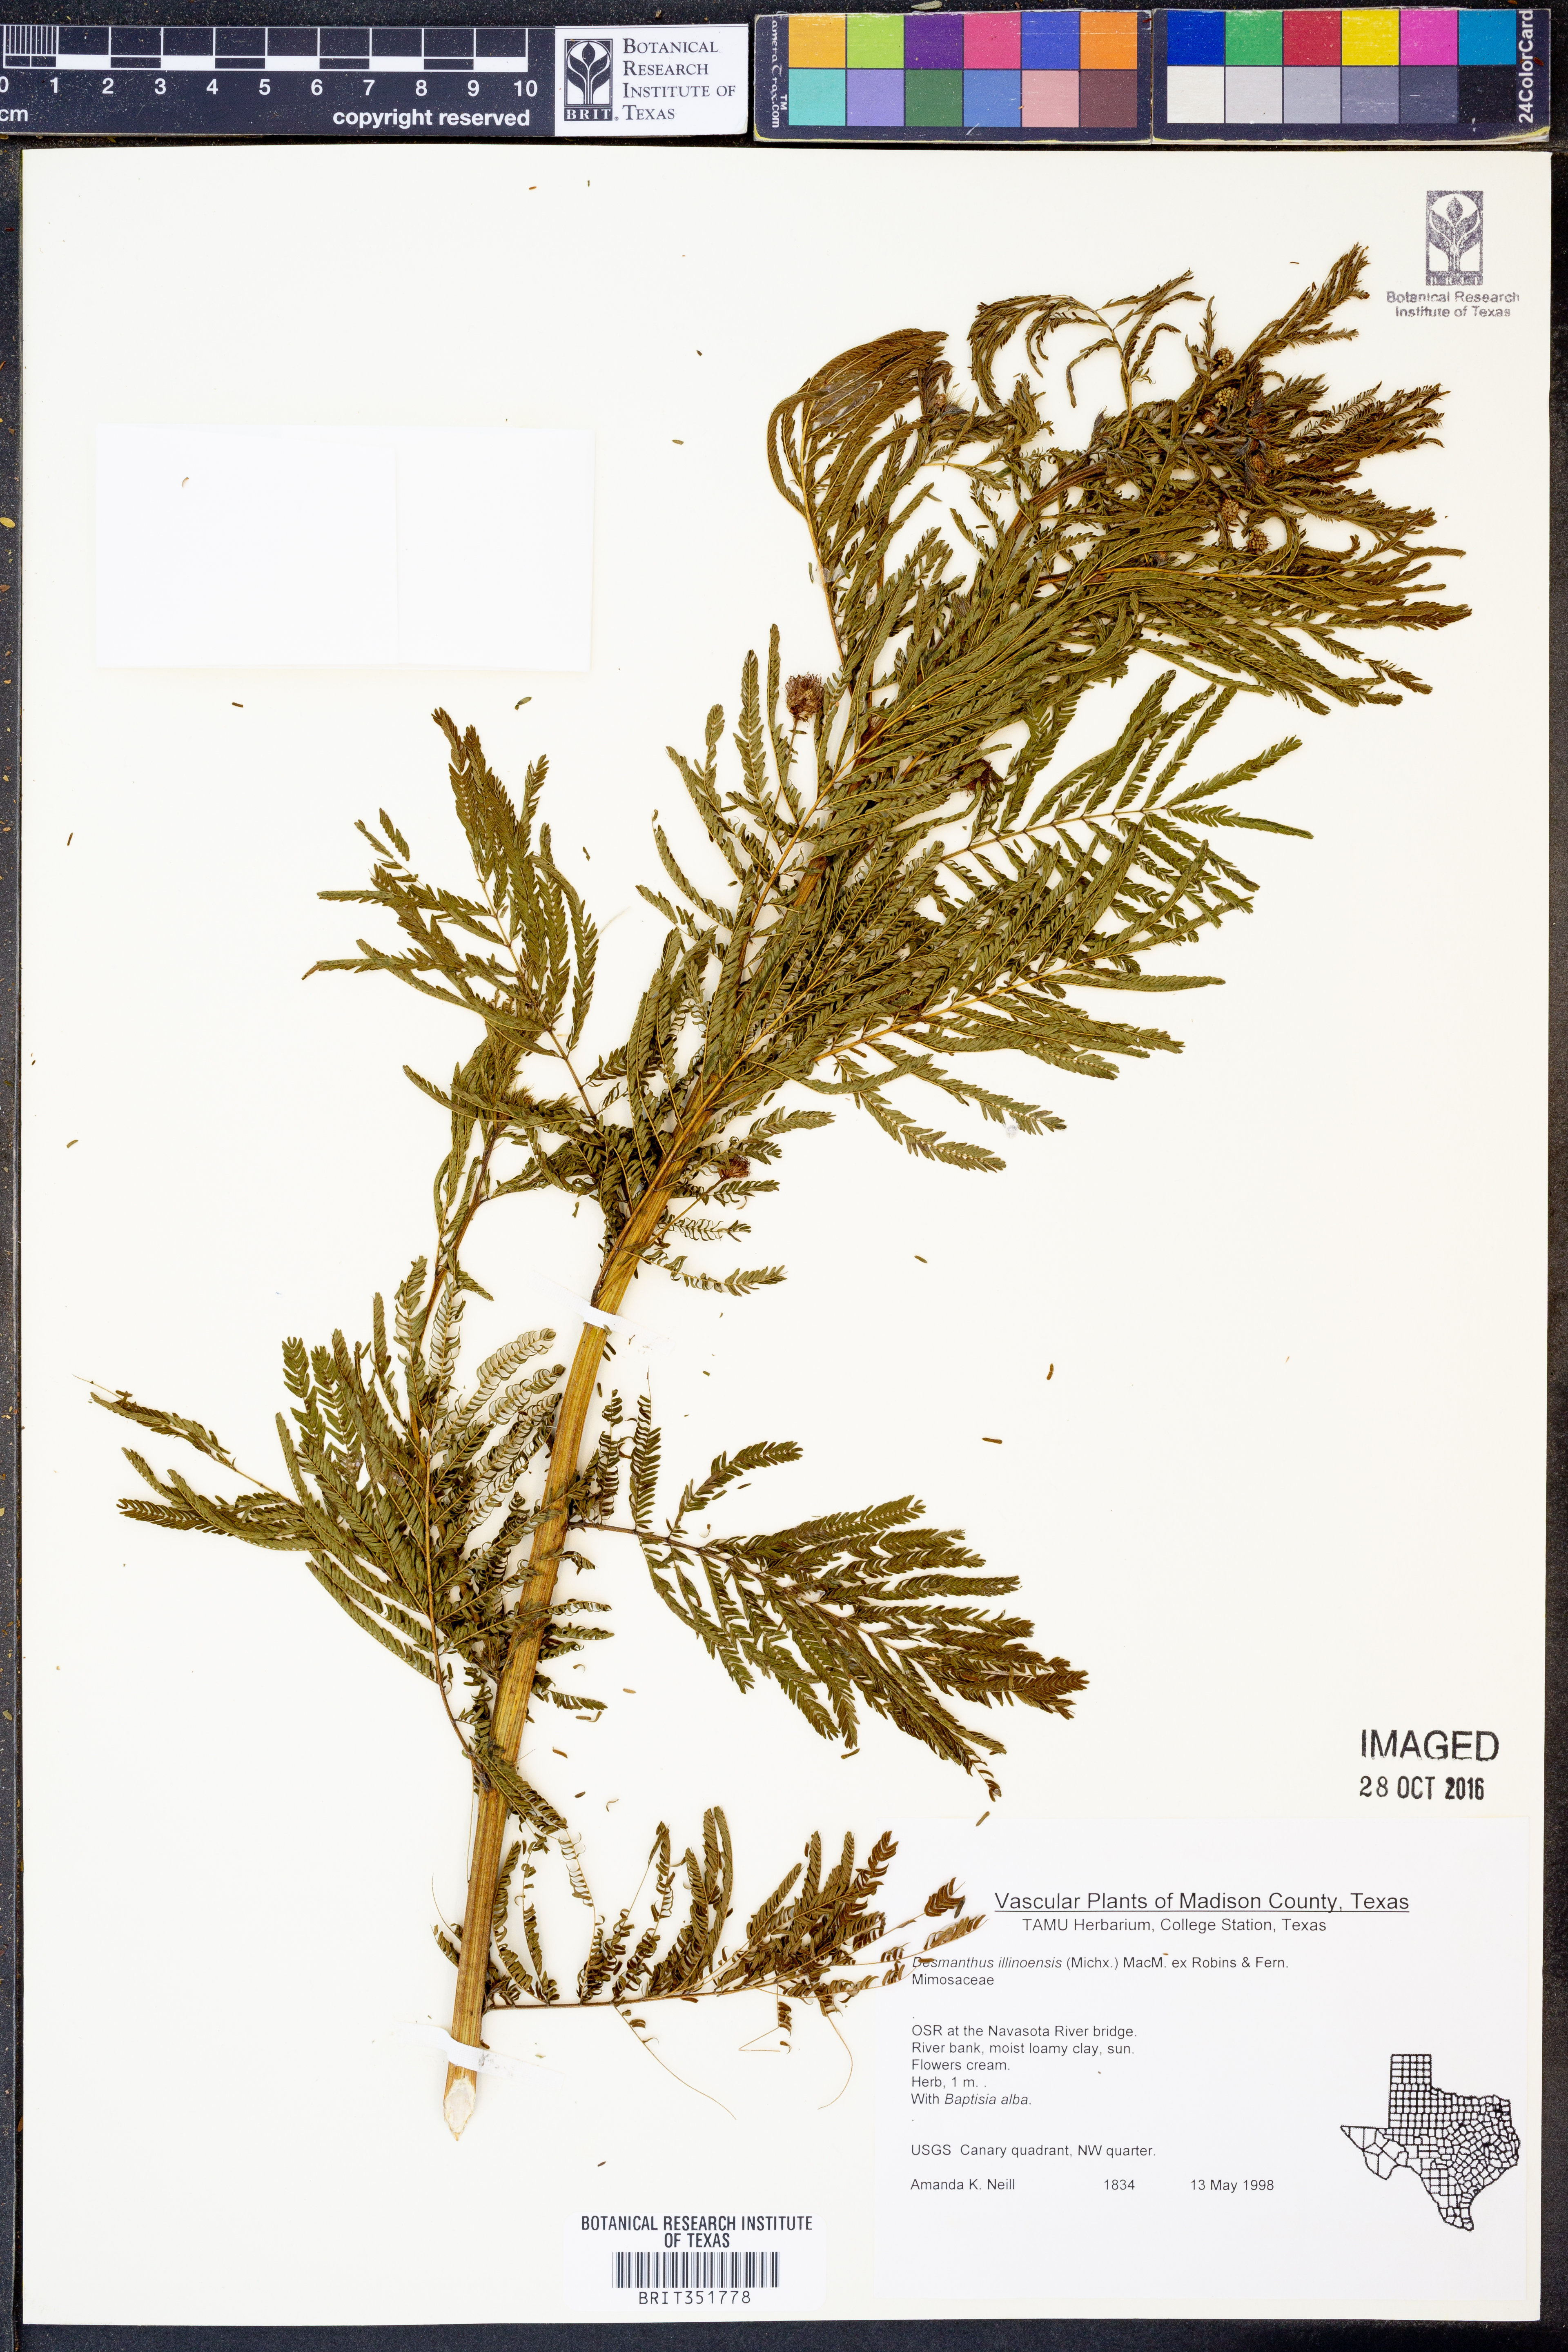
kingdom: Plantae
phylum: Tracheophyta
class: Magnoliopsida
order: Fabales
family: Fabaceae
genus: Desmanthus
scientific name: Desmanthus illinoensis
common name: Illinois bundle-flower
